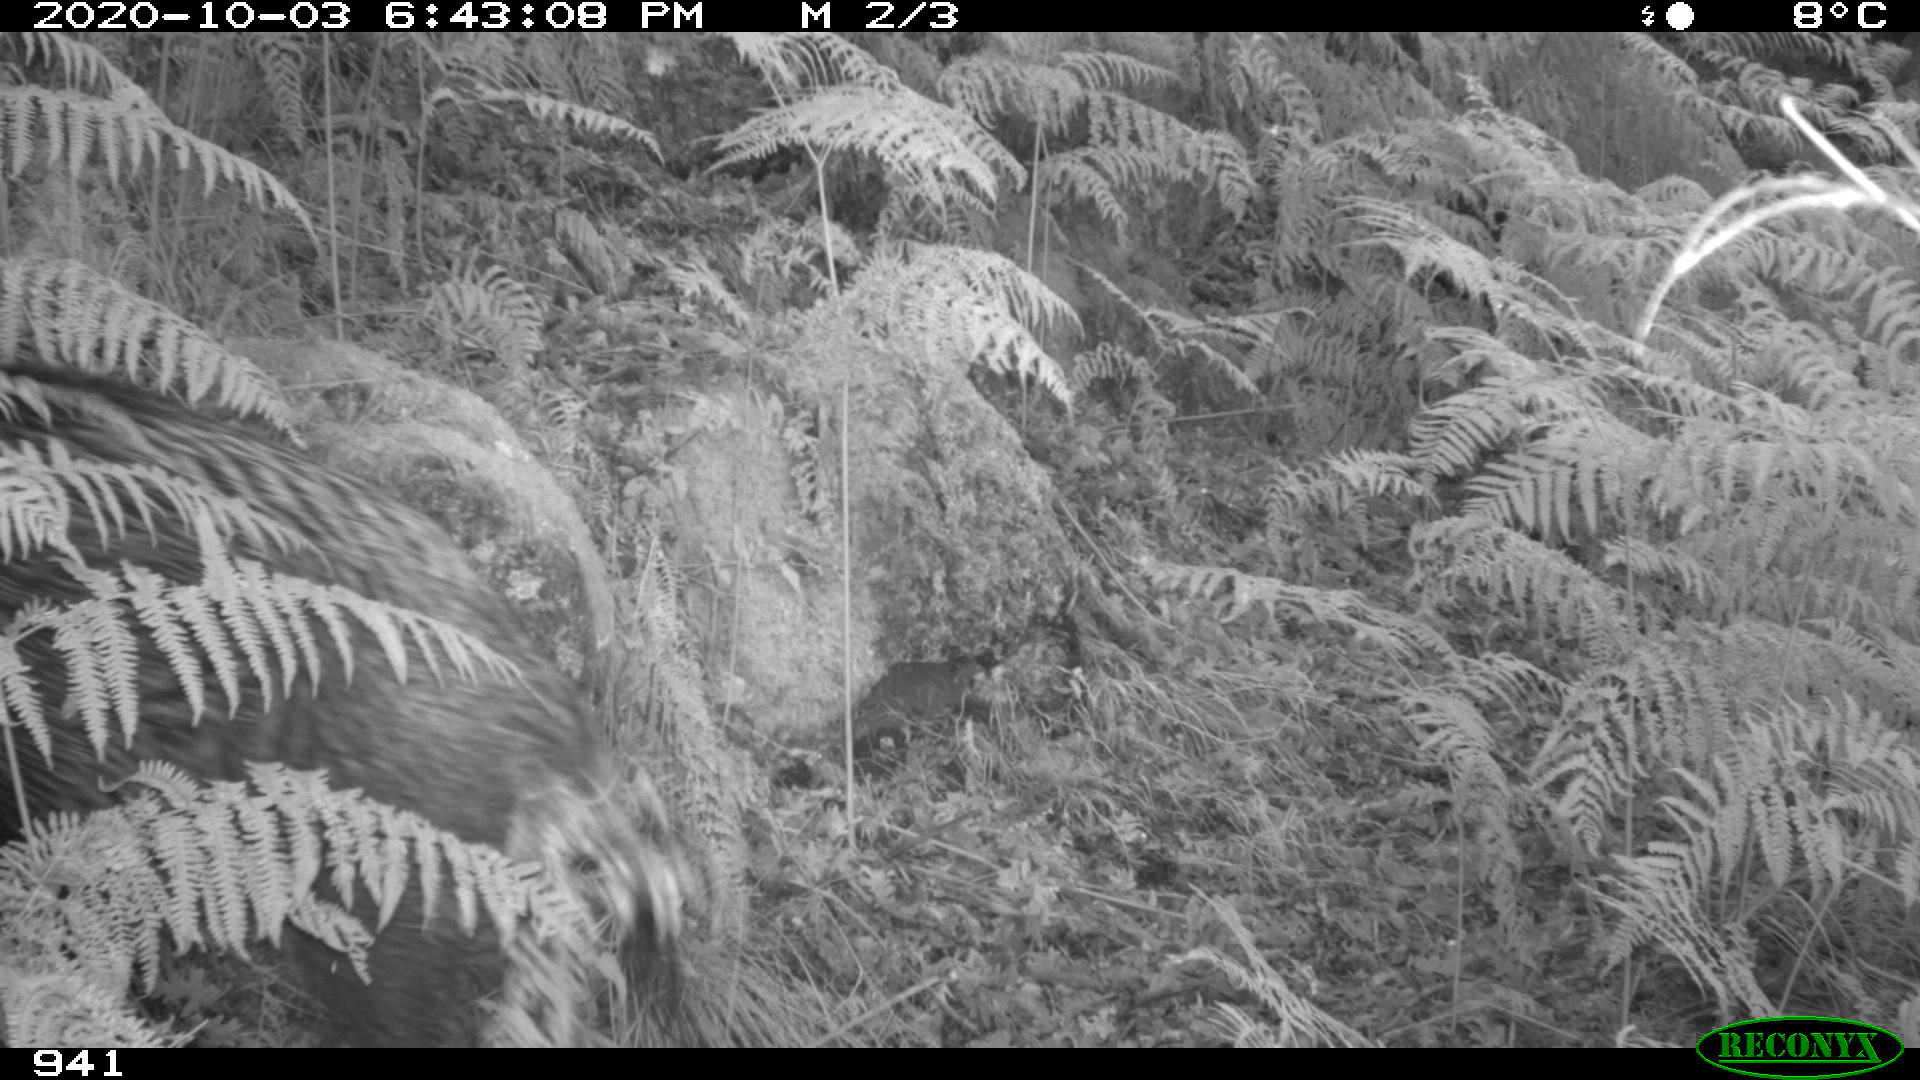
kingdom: Animalia
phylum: Chordata
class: Mammalia
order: Artiodactyla
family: Suidae
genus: Sus
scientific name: Sus scrofa
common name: Wild boar
